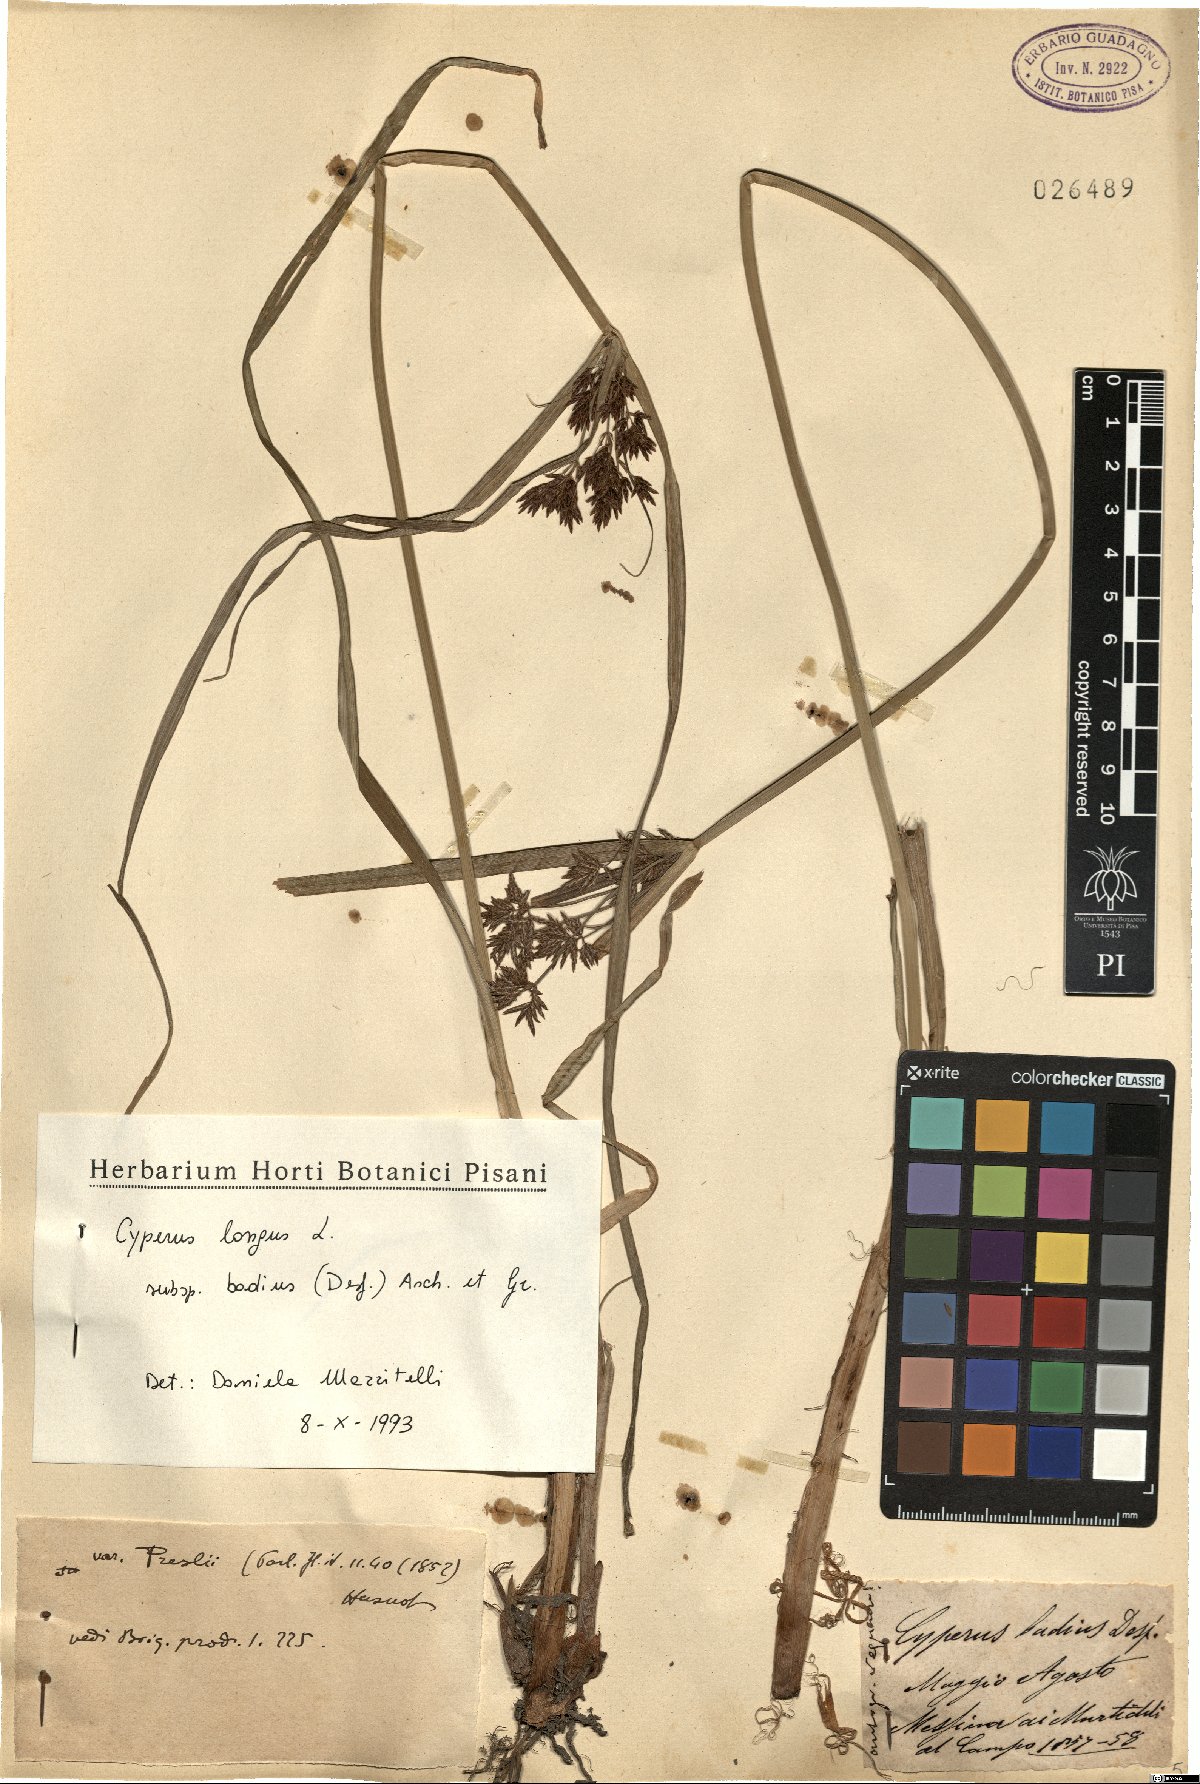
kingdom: Plantae
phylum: Tracheophyta
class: Liliopsida
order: Poales
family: Cyperaceae
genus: Cyperus
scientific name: Cyperus longus
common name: Galingale
